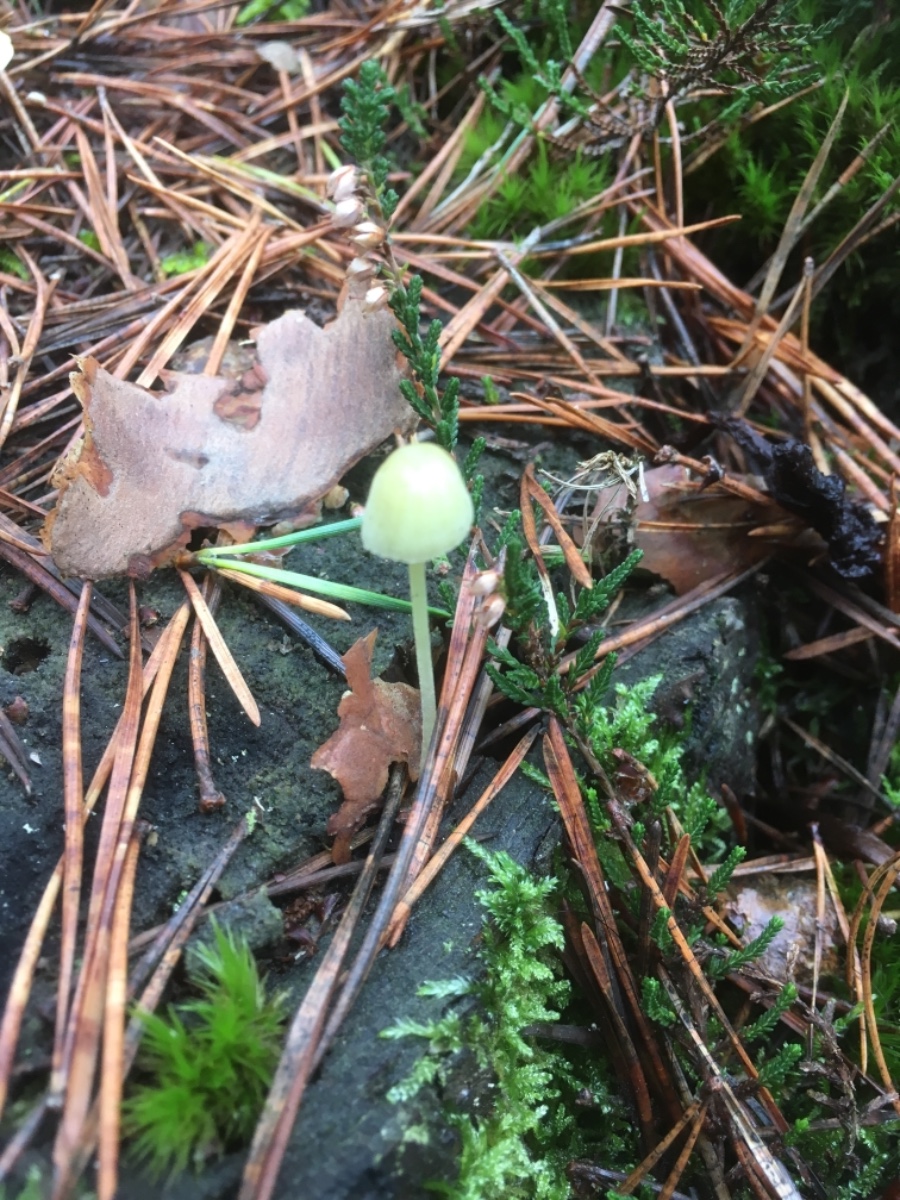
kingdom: Fungi
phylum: Basidiomycota
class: Agaricomycetes
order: Agaricales
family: Mycenaceae
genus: Mycena
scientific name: Mycena epipterygia
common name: gulstokket huesvamp
